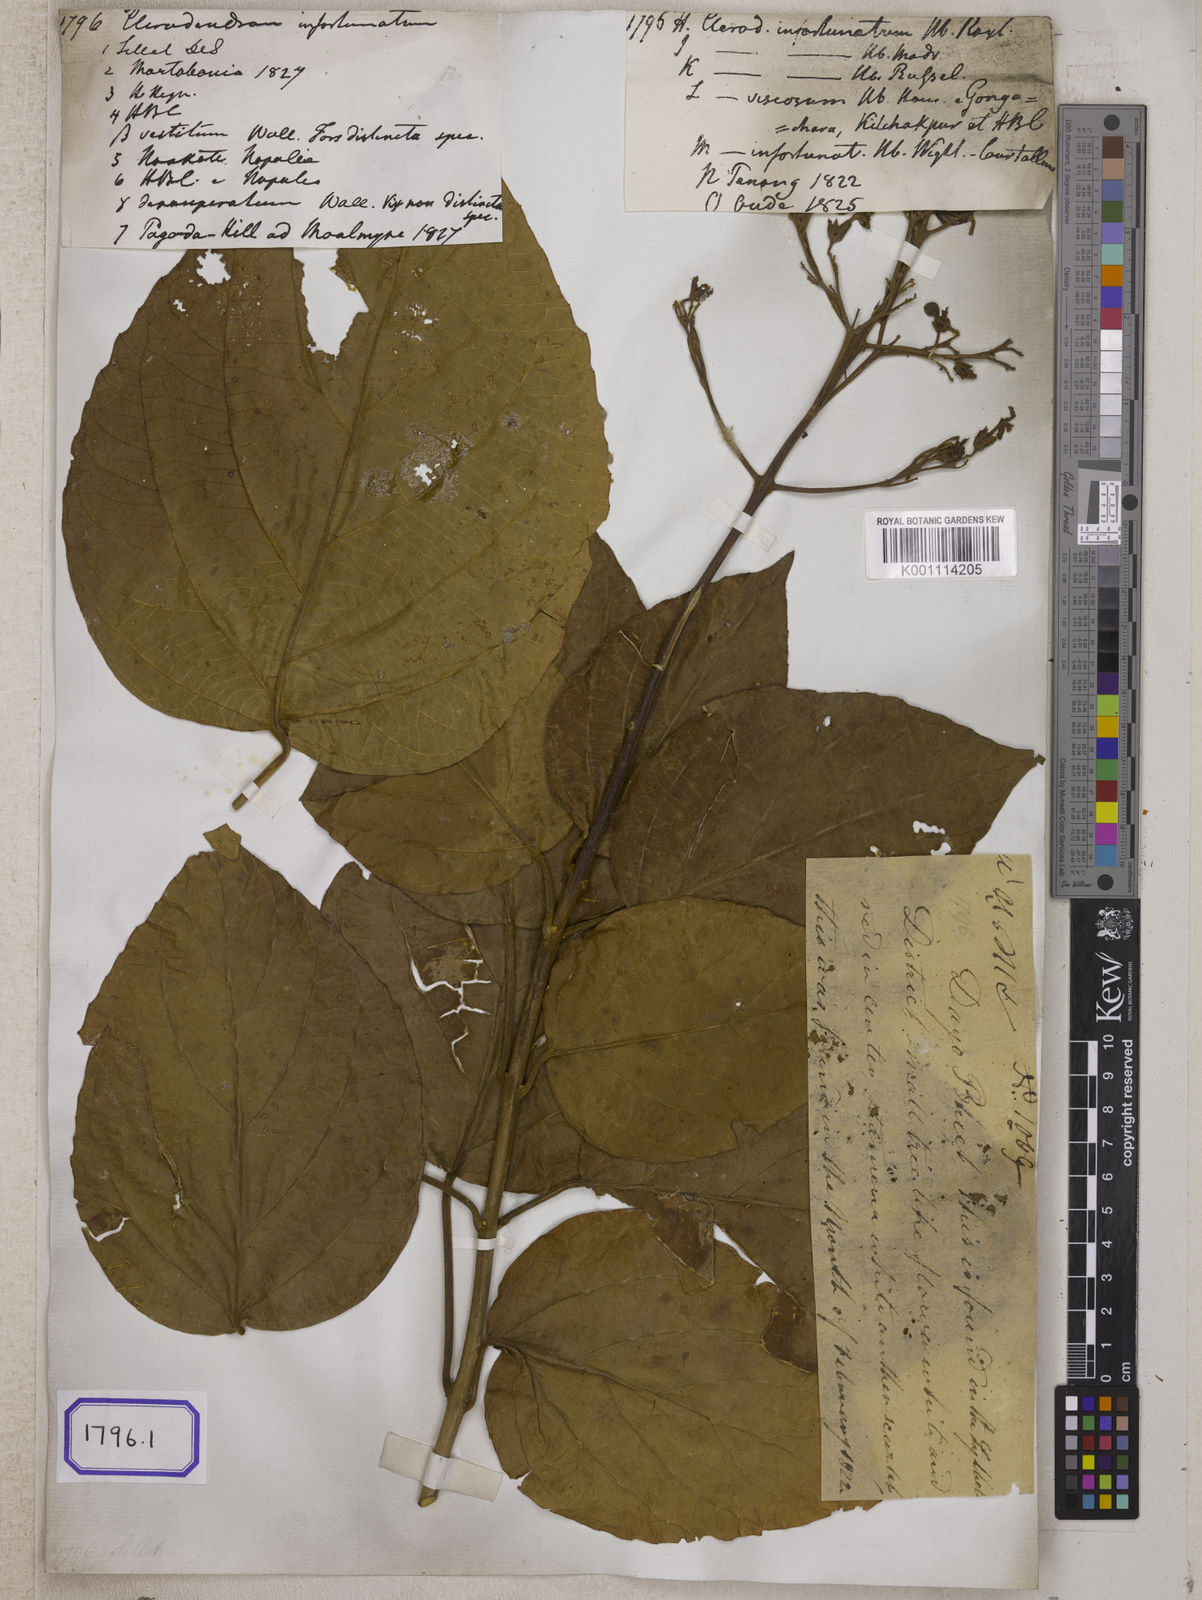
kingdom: Plantae
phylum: Tracheophyta
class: Magnoliopsida
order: Lamiales
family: Lamiaceae
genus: Clerodendrum
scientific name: Clerodendrum infortunatum
